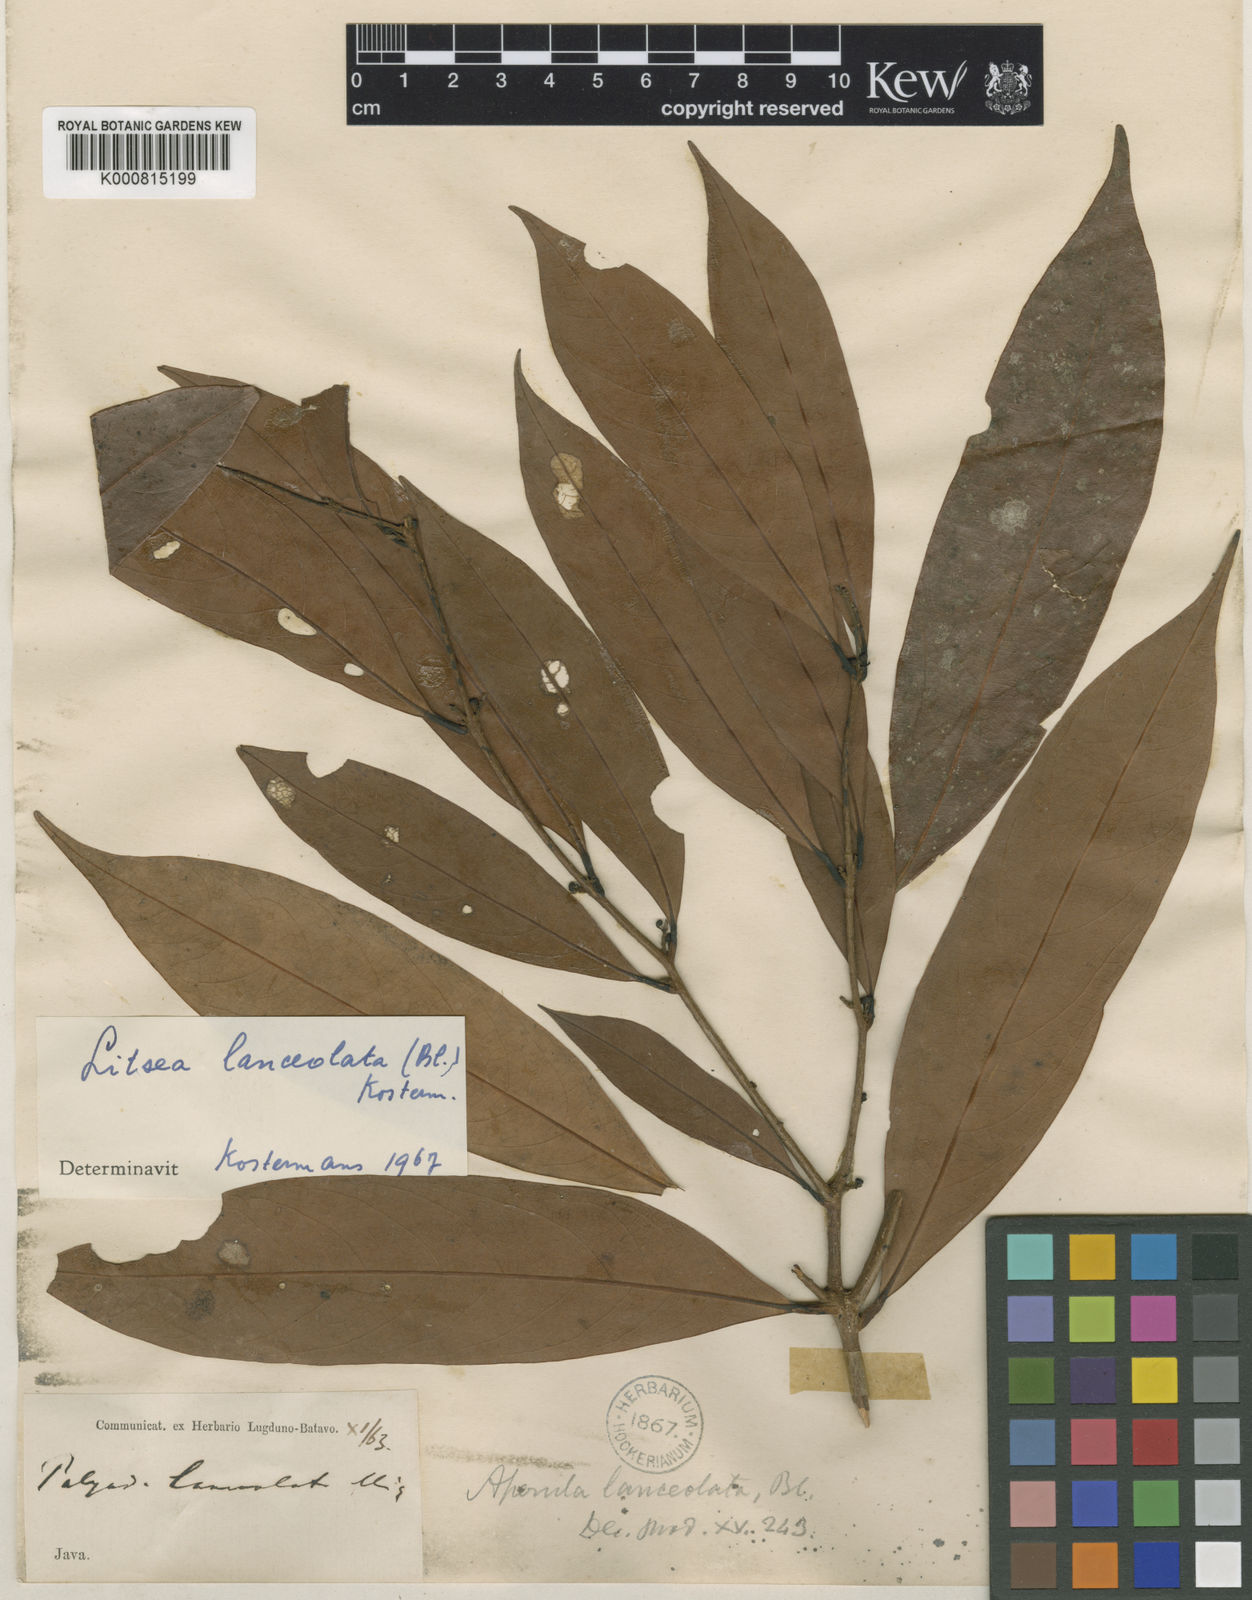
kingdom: Plantae
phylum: Tracheophyta
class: Magnoliopsida
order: Laurales
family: Lauraceae
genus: Litsea
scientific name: Litsea lanceolata
